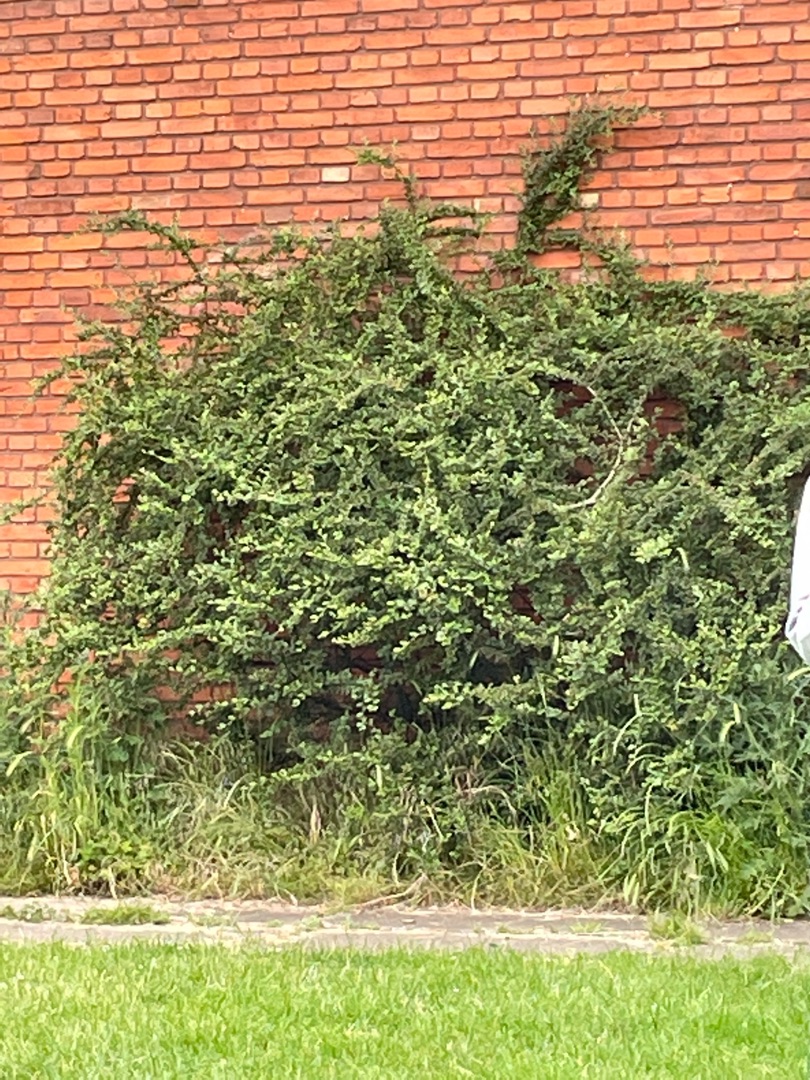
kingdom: Plantae
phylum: Tracheophyta
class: Magnoliopsida
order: Rosales
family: Rosaceae
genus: Cotoneaster
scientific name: Cotoneaster
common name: Dværgmispelslægten
